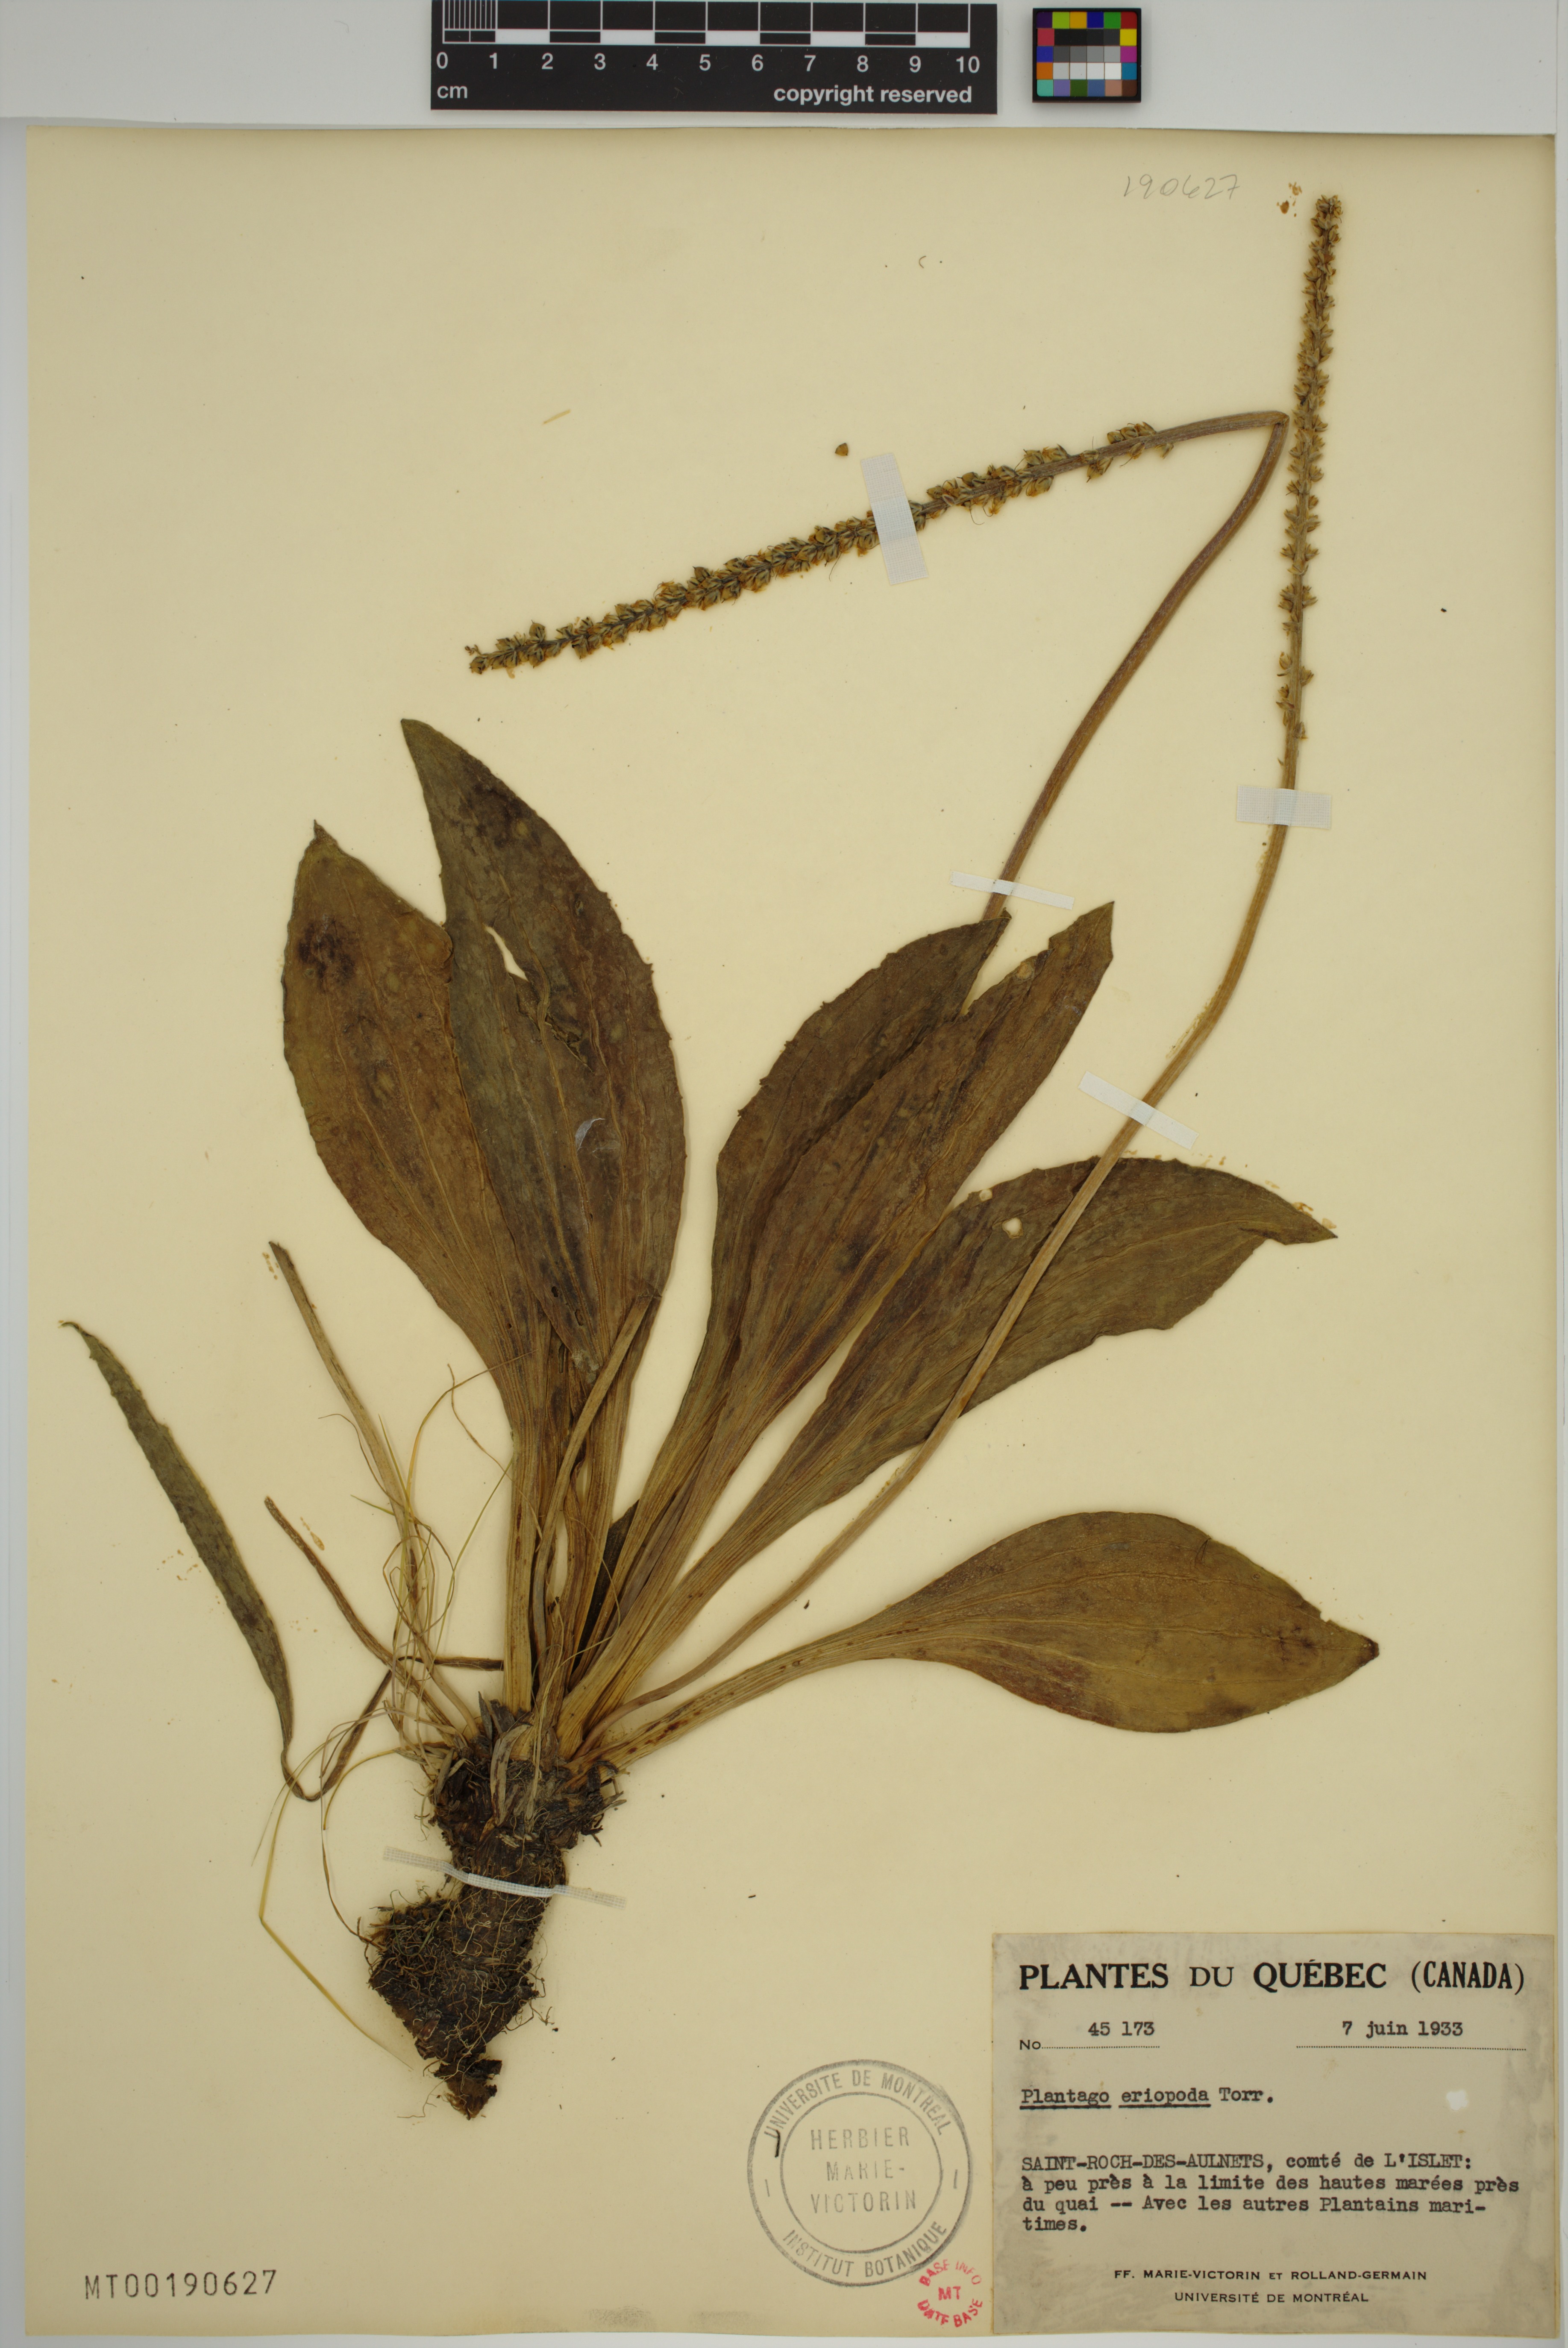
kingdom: Plantae
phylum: Tracheophyta
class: Magnoliopsida
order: Lamiales
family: Plantaginaceae
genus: Plantago
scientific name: Plantago eriopoda
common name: Alkali plantain
